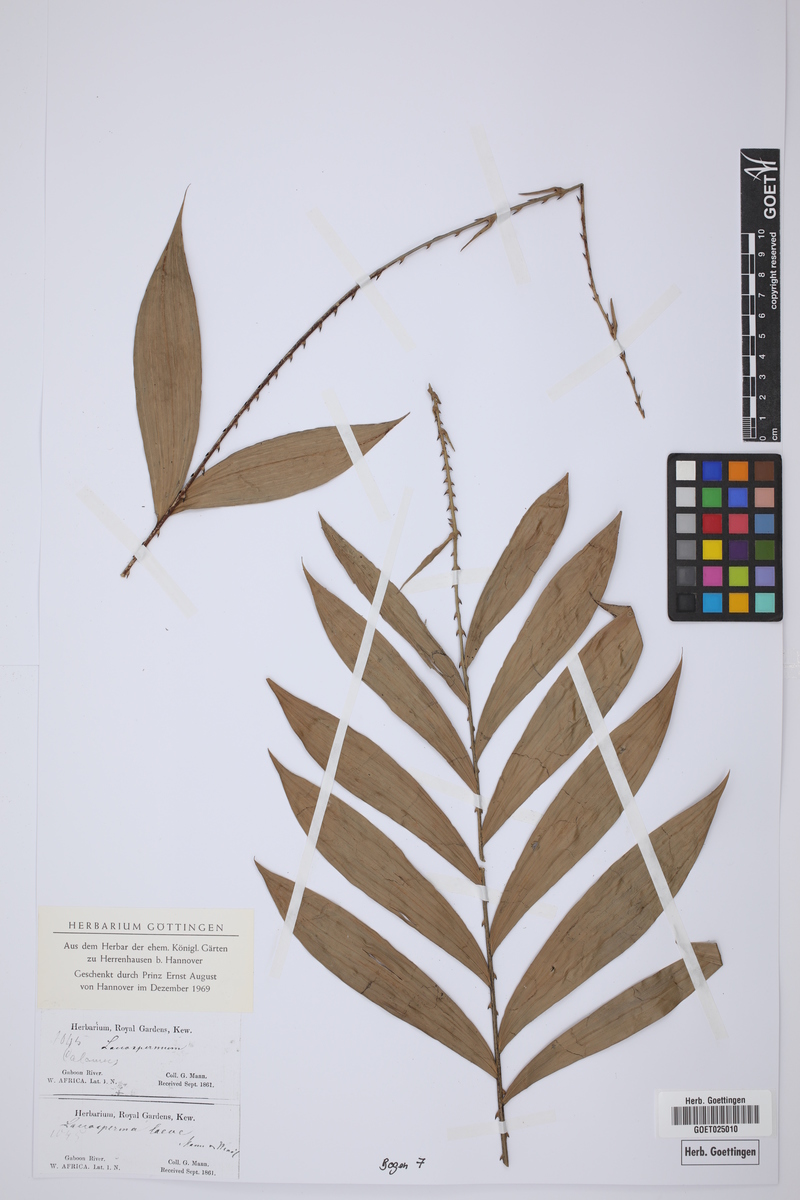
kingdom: Plantae
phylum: Tracheophyta
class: Liliopsida
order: Arecales
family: Arecaceae
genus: Laccosperma
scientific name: Laccosperma laeve
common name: Rattan
